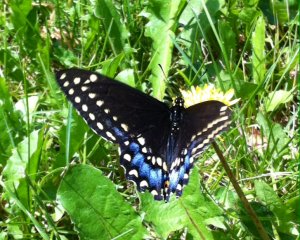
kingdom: Animalia
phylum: Arthropoda
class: Insecta
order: Lepidoptera
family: Papilionidae
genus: Papilio
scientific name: Papilio polyxenes
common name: Black Swallowtail
